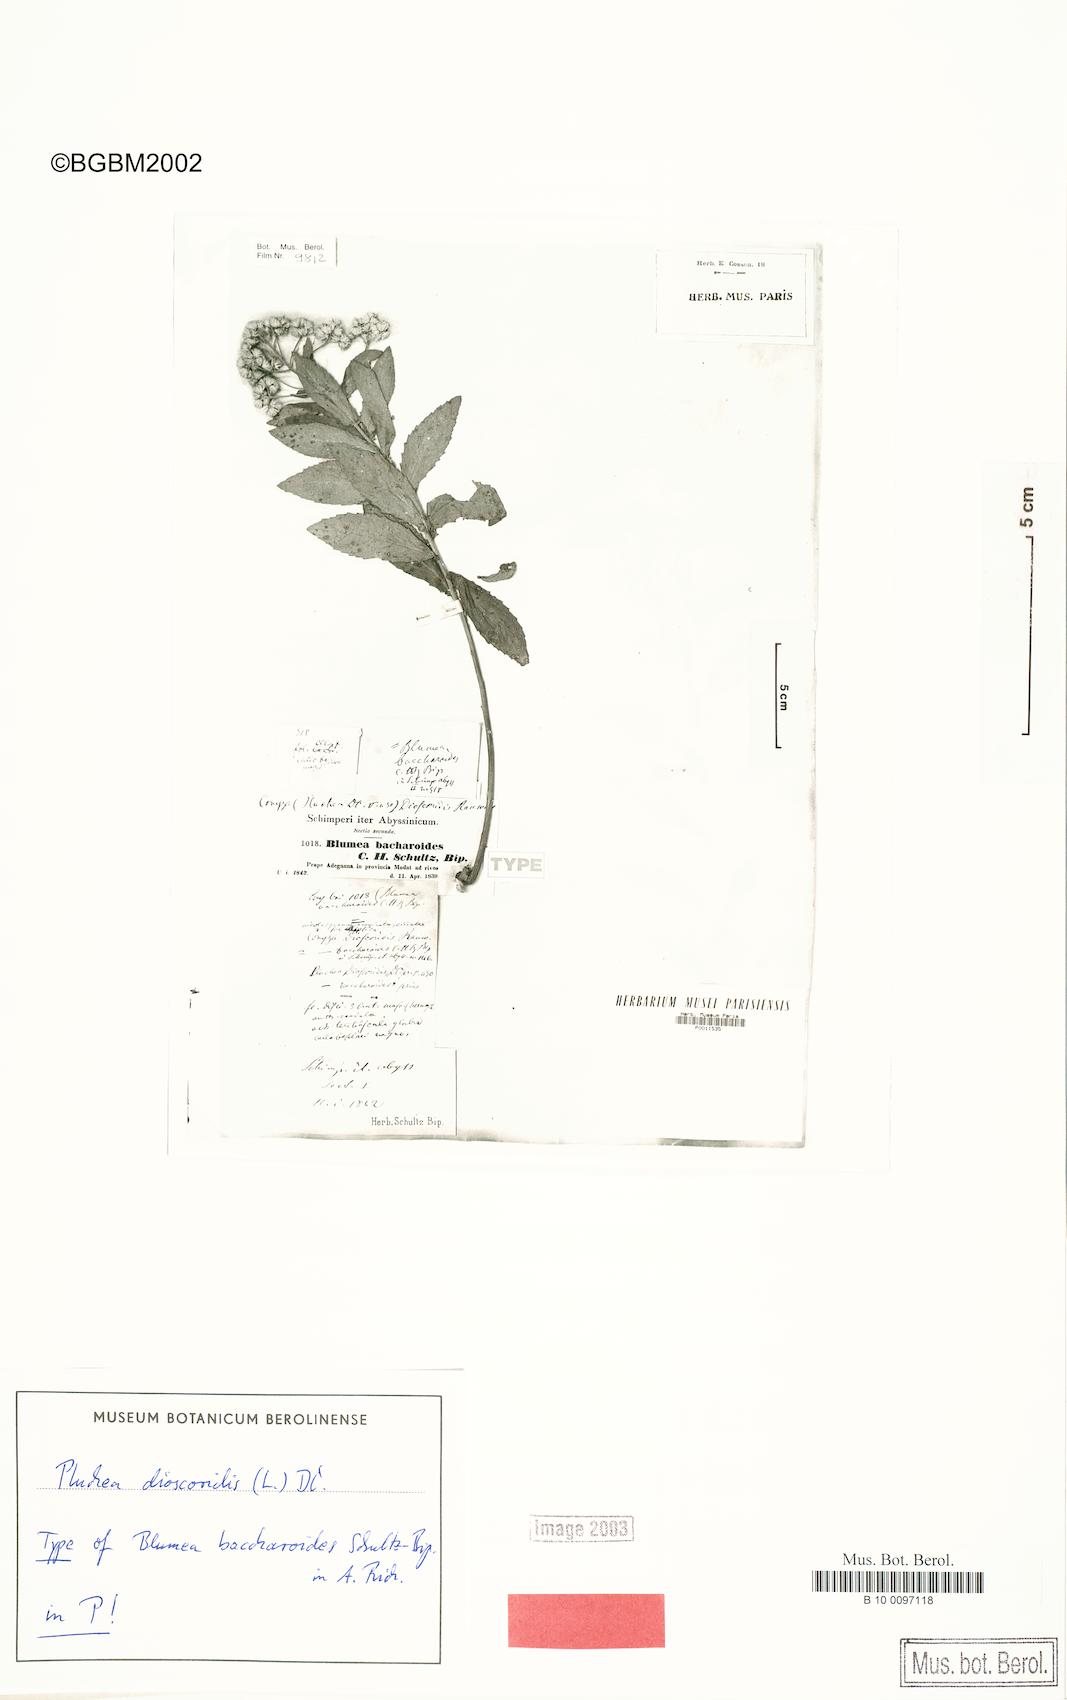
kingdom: Plantae
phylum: Tracheophyta
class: Magnoliopsida
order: Asterales
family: Asteraceae
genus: Pluchea
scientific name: Pluchea dioscoridis
